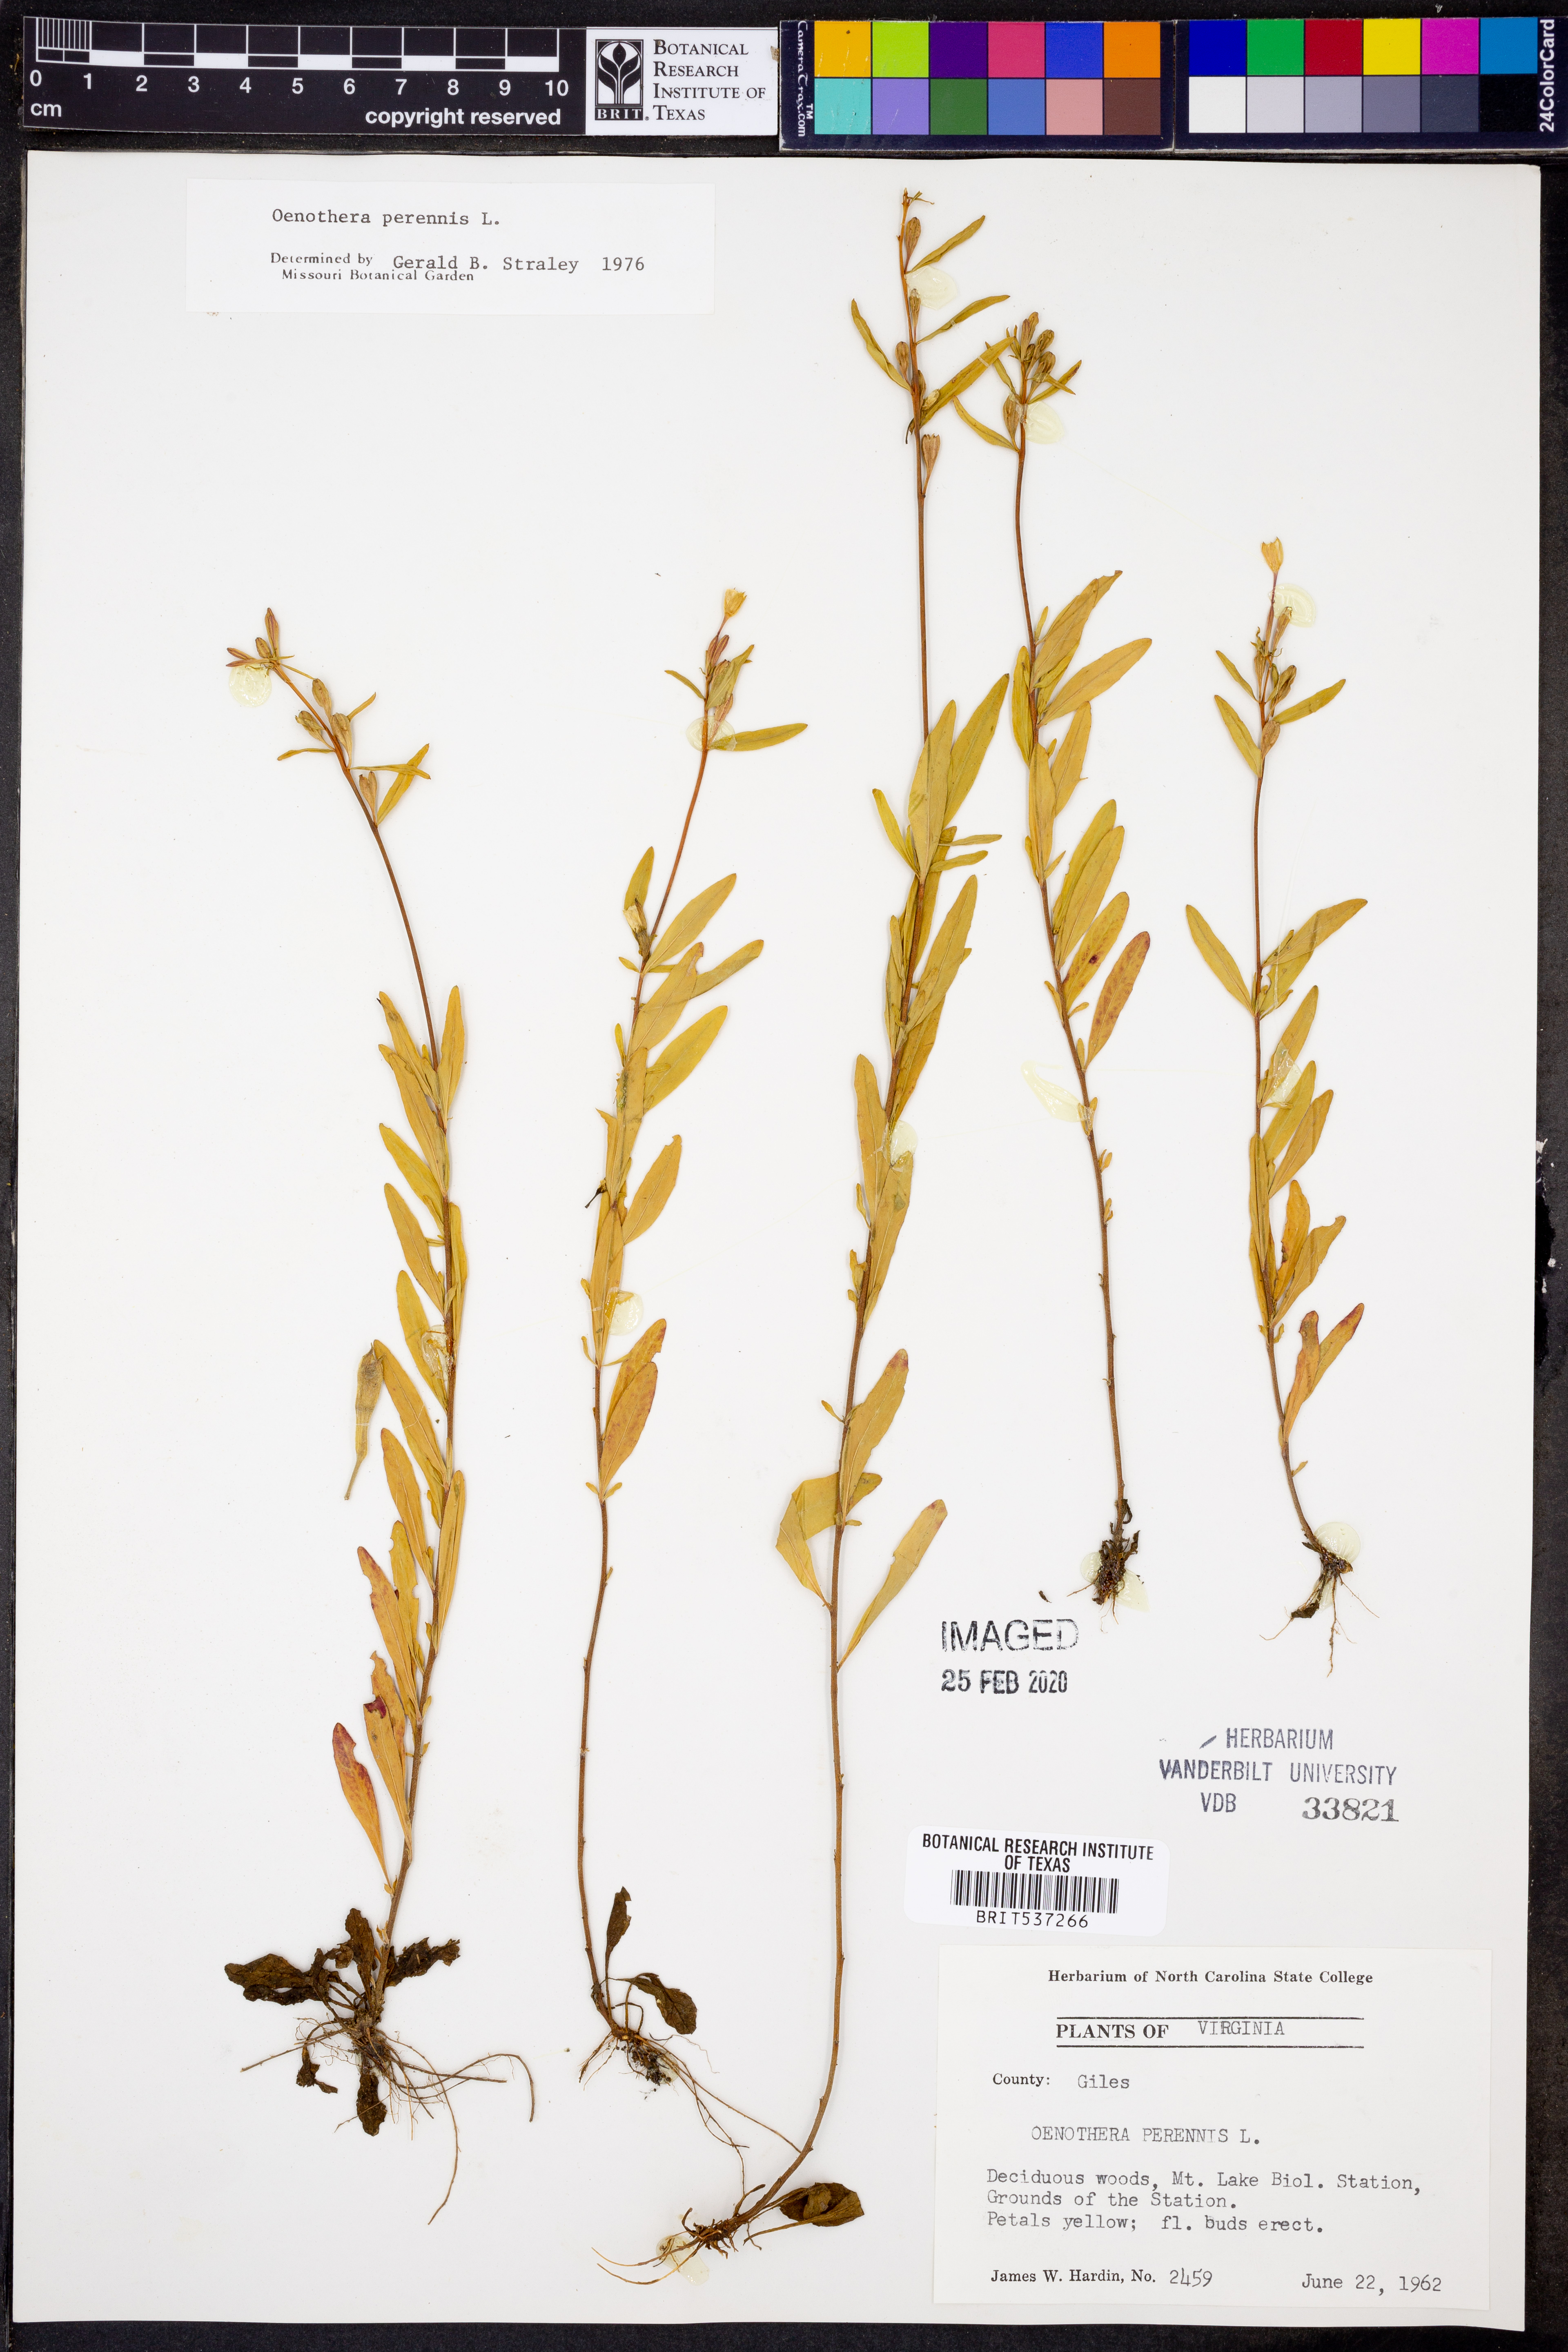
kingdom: Plantae
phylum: Tracheophyta
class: Magnoliopsida
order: Myrtales
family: Onagraceae
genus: Oenothera
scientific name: Oenothera perennis
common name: Small sundrops
